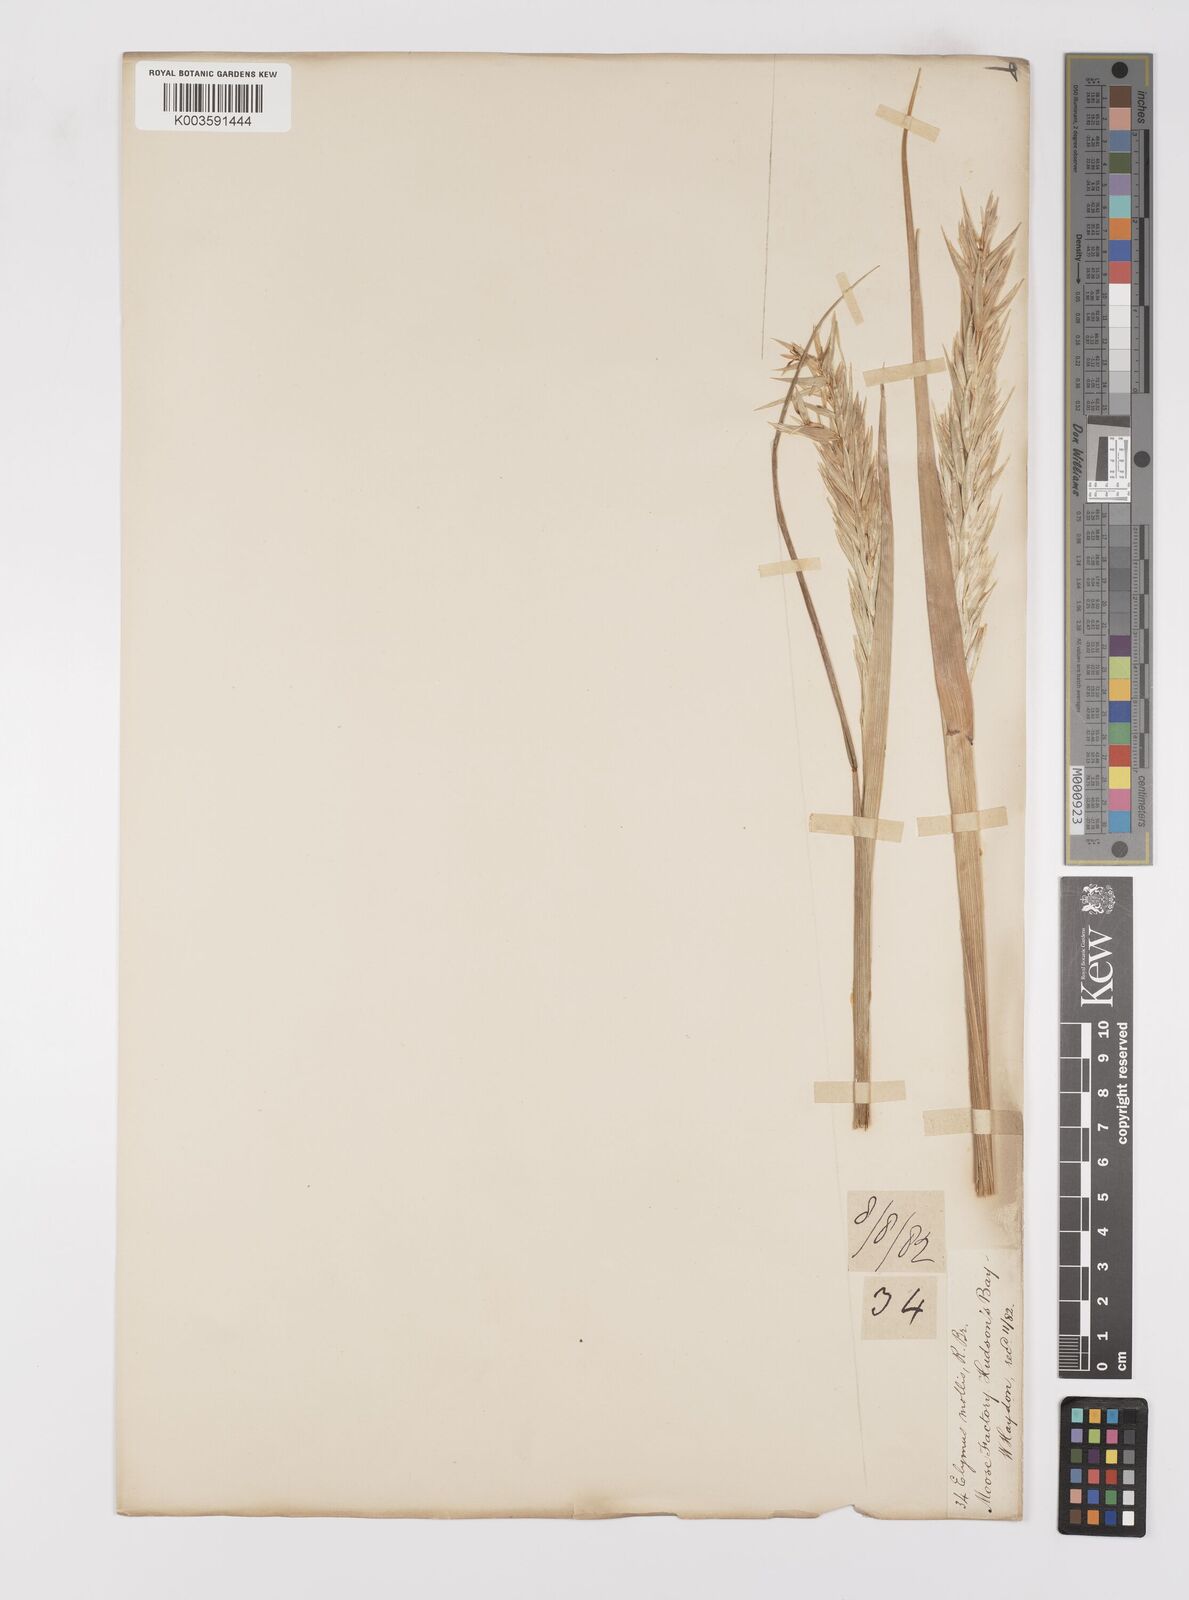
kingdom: Plantae
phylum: Tracheophyta
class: Liliopsida
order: Poales
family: Poaceae
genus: Leymus
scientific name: Leymus mollis
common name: American dune grass
